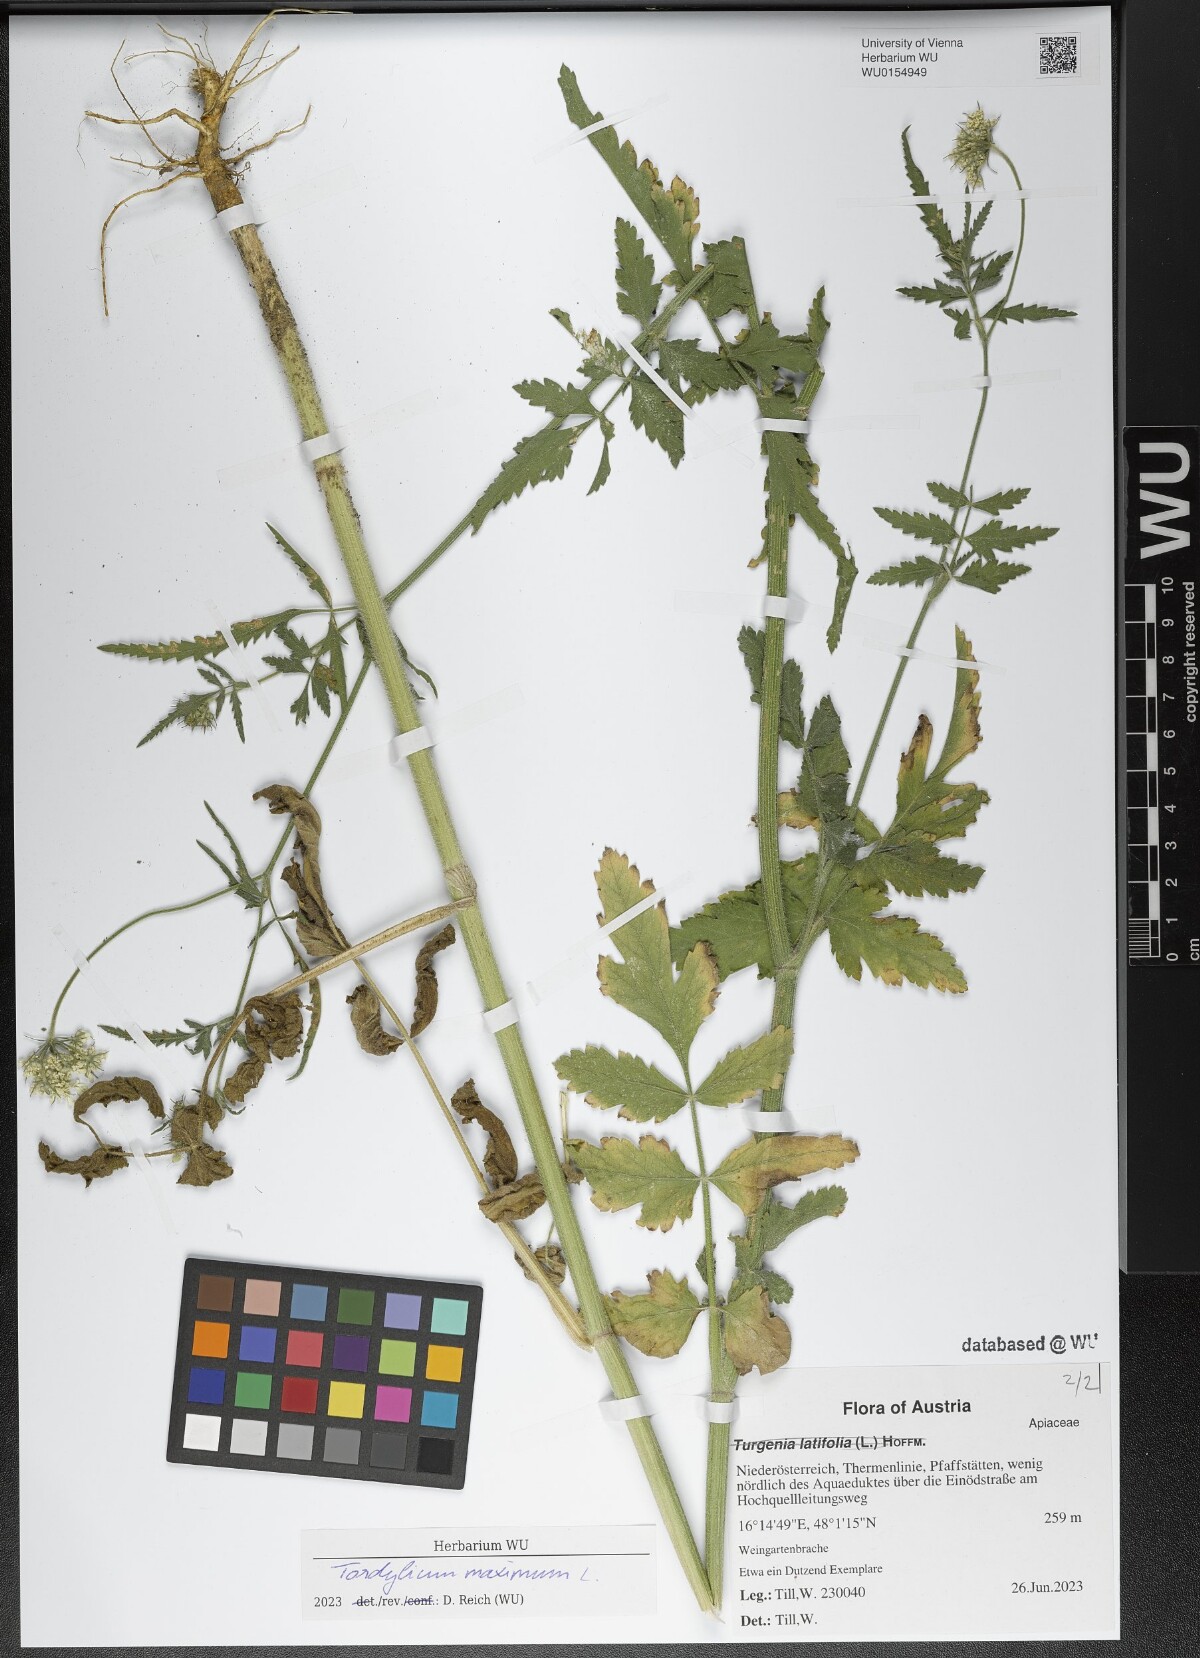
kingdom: Plantae
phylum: Tracheophyta
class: Magnoliopsida
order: Apiales
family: Apiaceae
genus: Tordylium
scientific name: Tordylium maximum
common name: Hartwort
